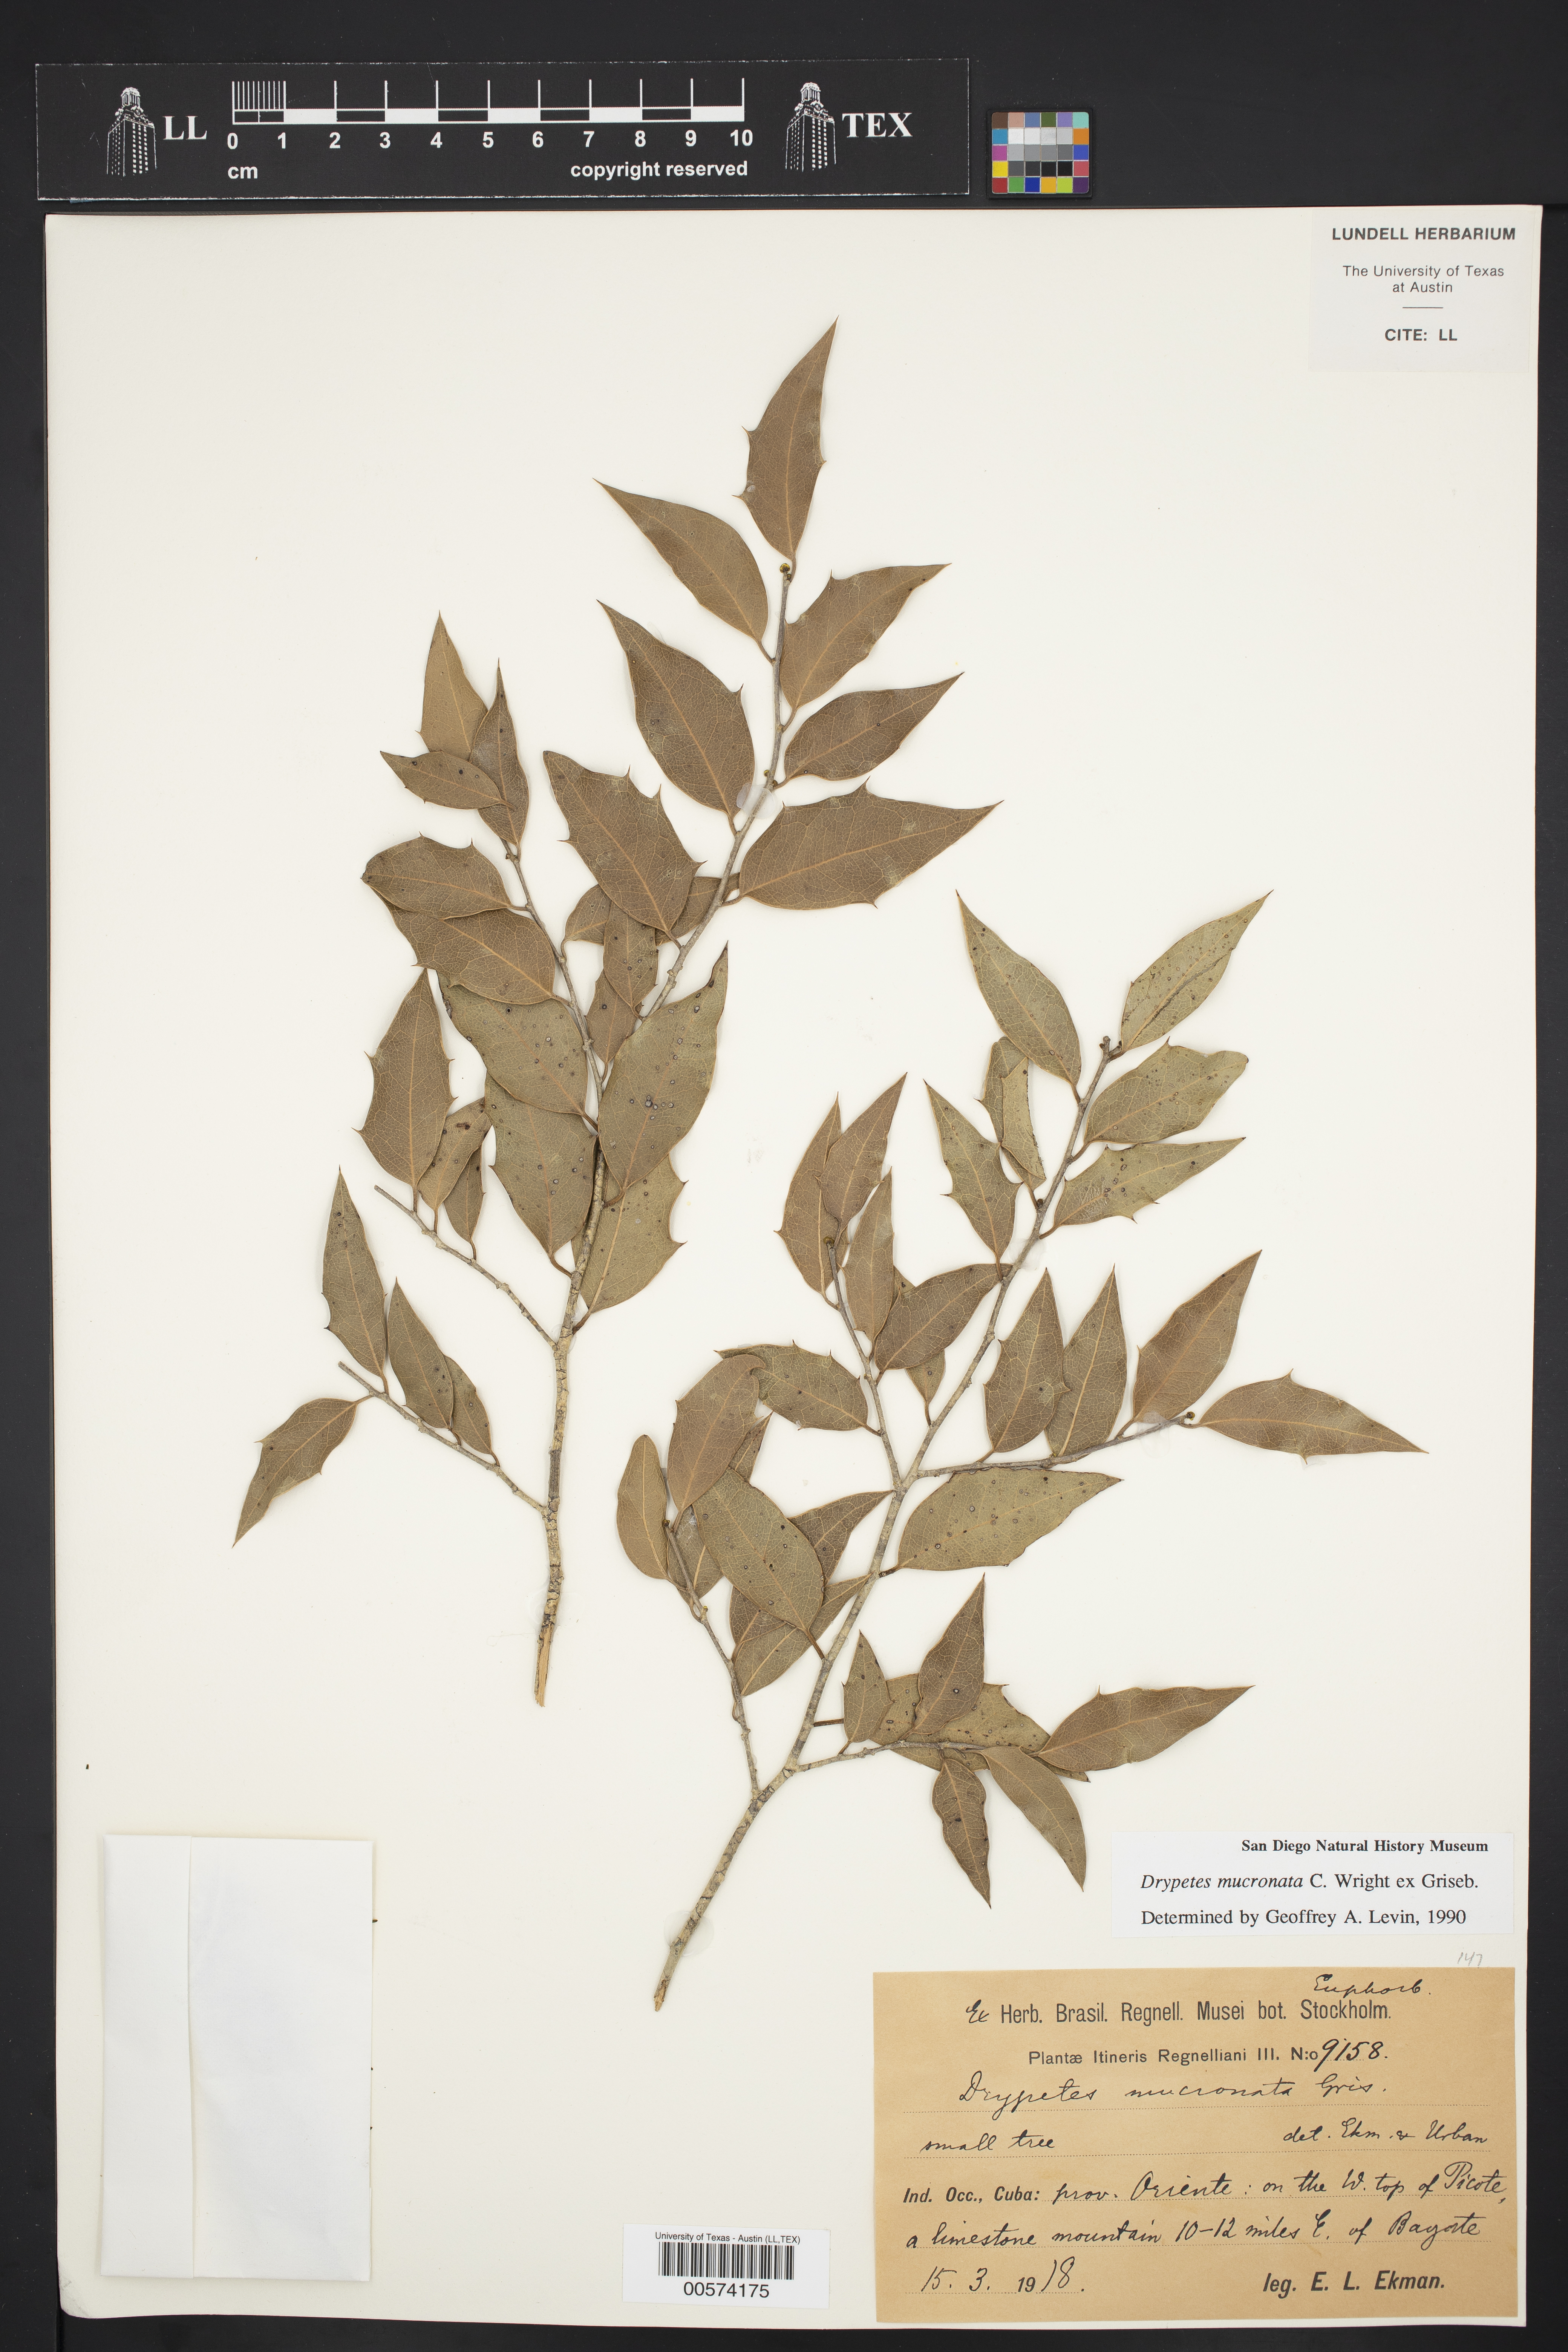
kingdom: Plantae
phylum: Tracheophyta
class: Magnoliopsida
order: Malpighiales
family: Putranjivaceae
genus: Drypetes
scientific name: Drypetes mucronata
